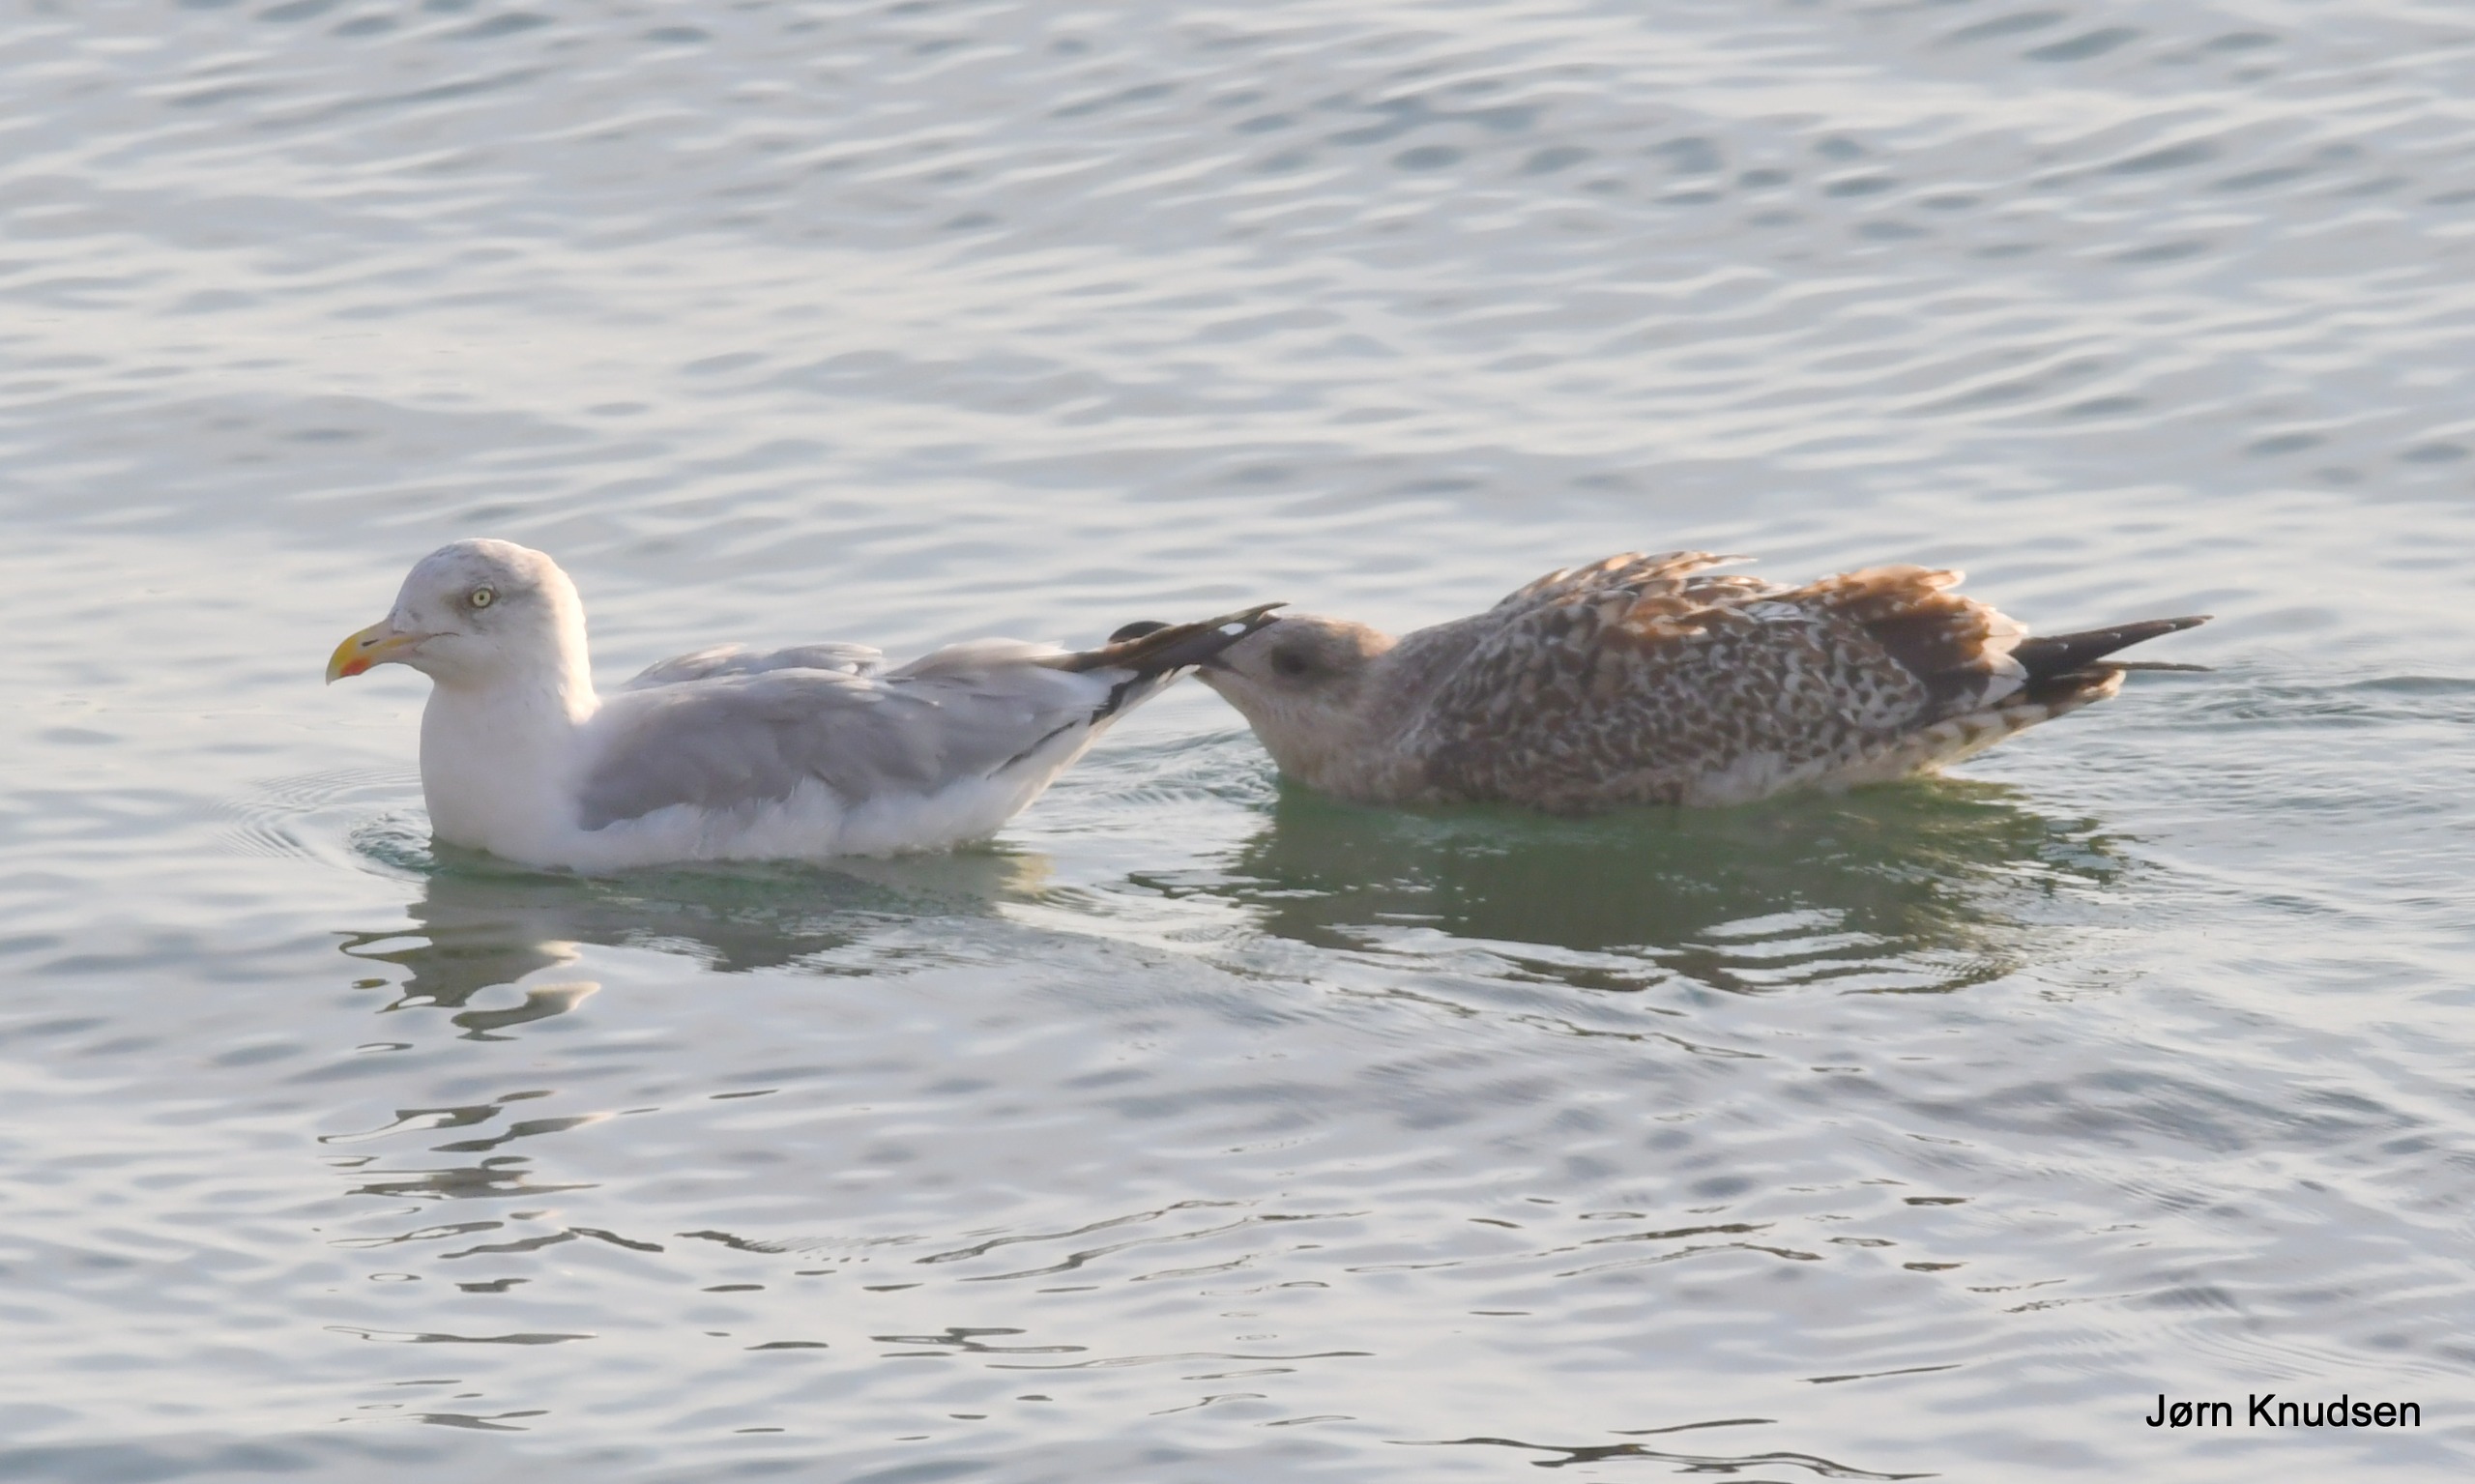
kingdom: Animalia
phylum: Chordata
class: Aves
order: Charadriiformes
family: Laridae
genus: Larus
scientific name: Larus argentatus
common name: Sølvmåge
